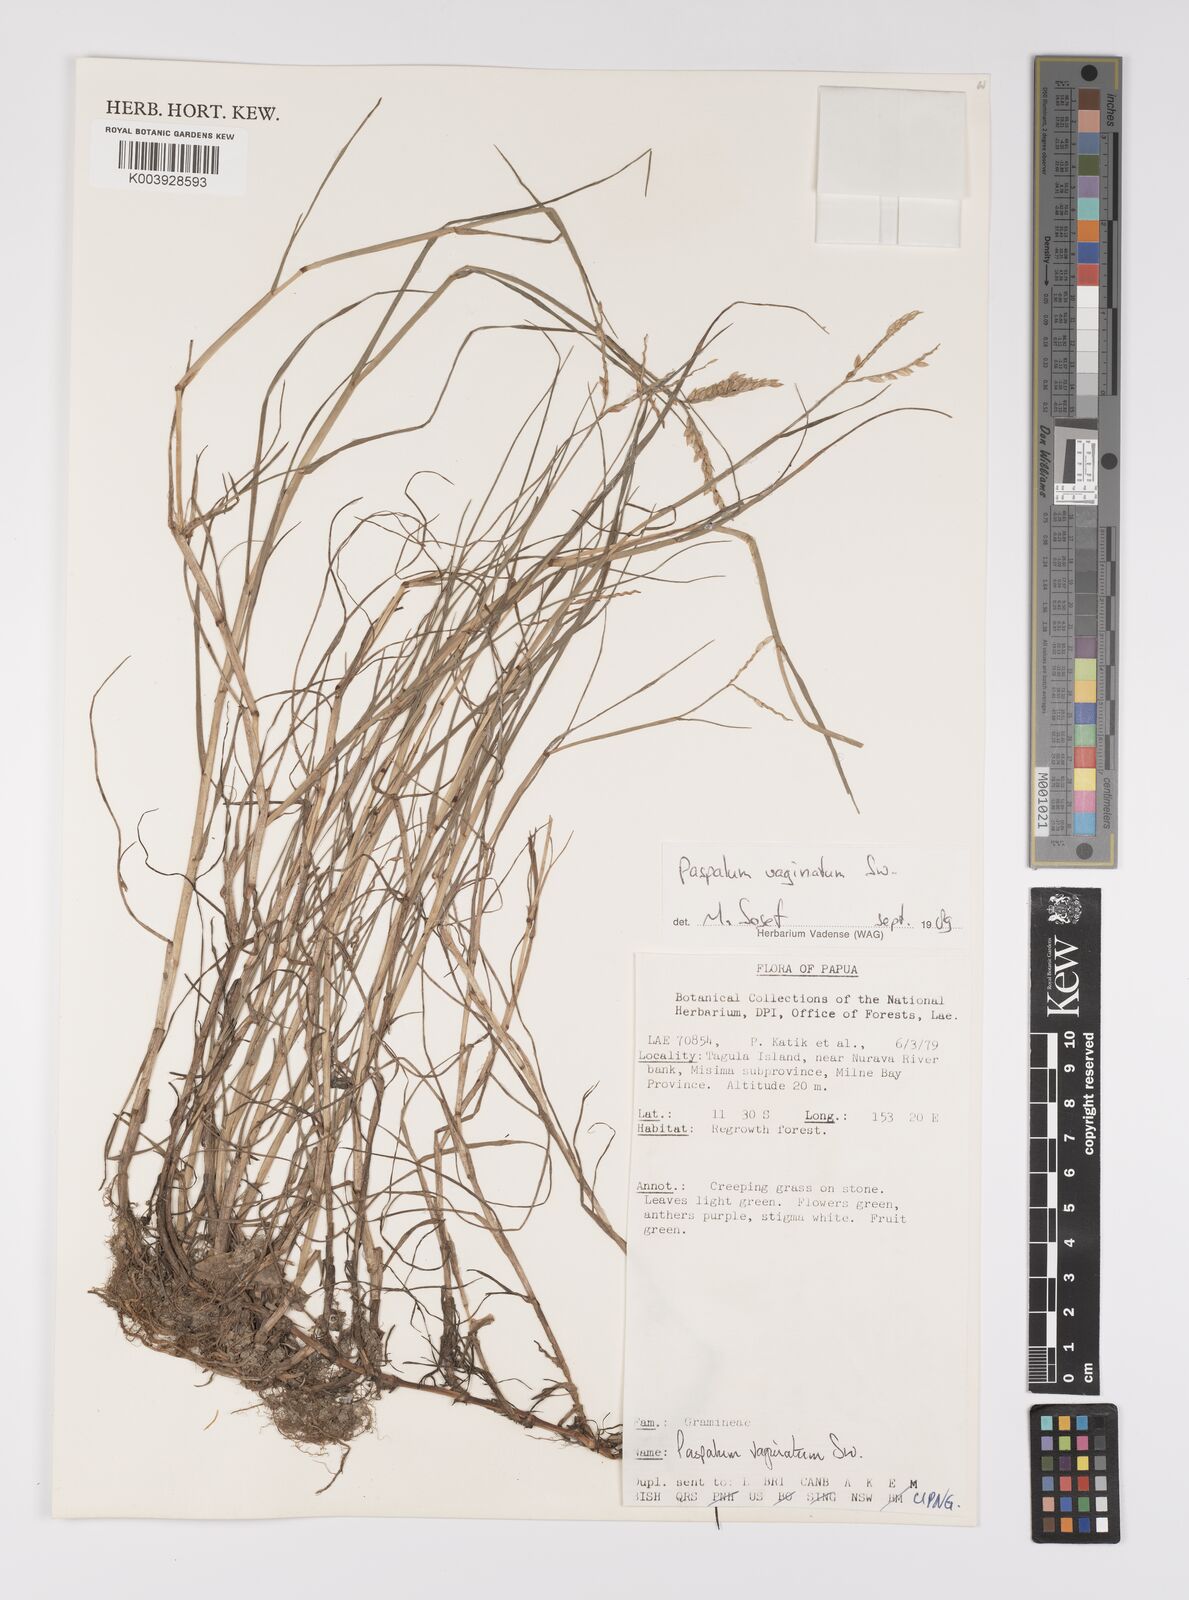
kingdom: Plantae
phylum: Tracheophyta
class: Liliopsida
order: Poales
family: Poaceae
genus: Paspalum
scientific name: Paspalum vaginatum
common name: Seashore paspalum
